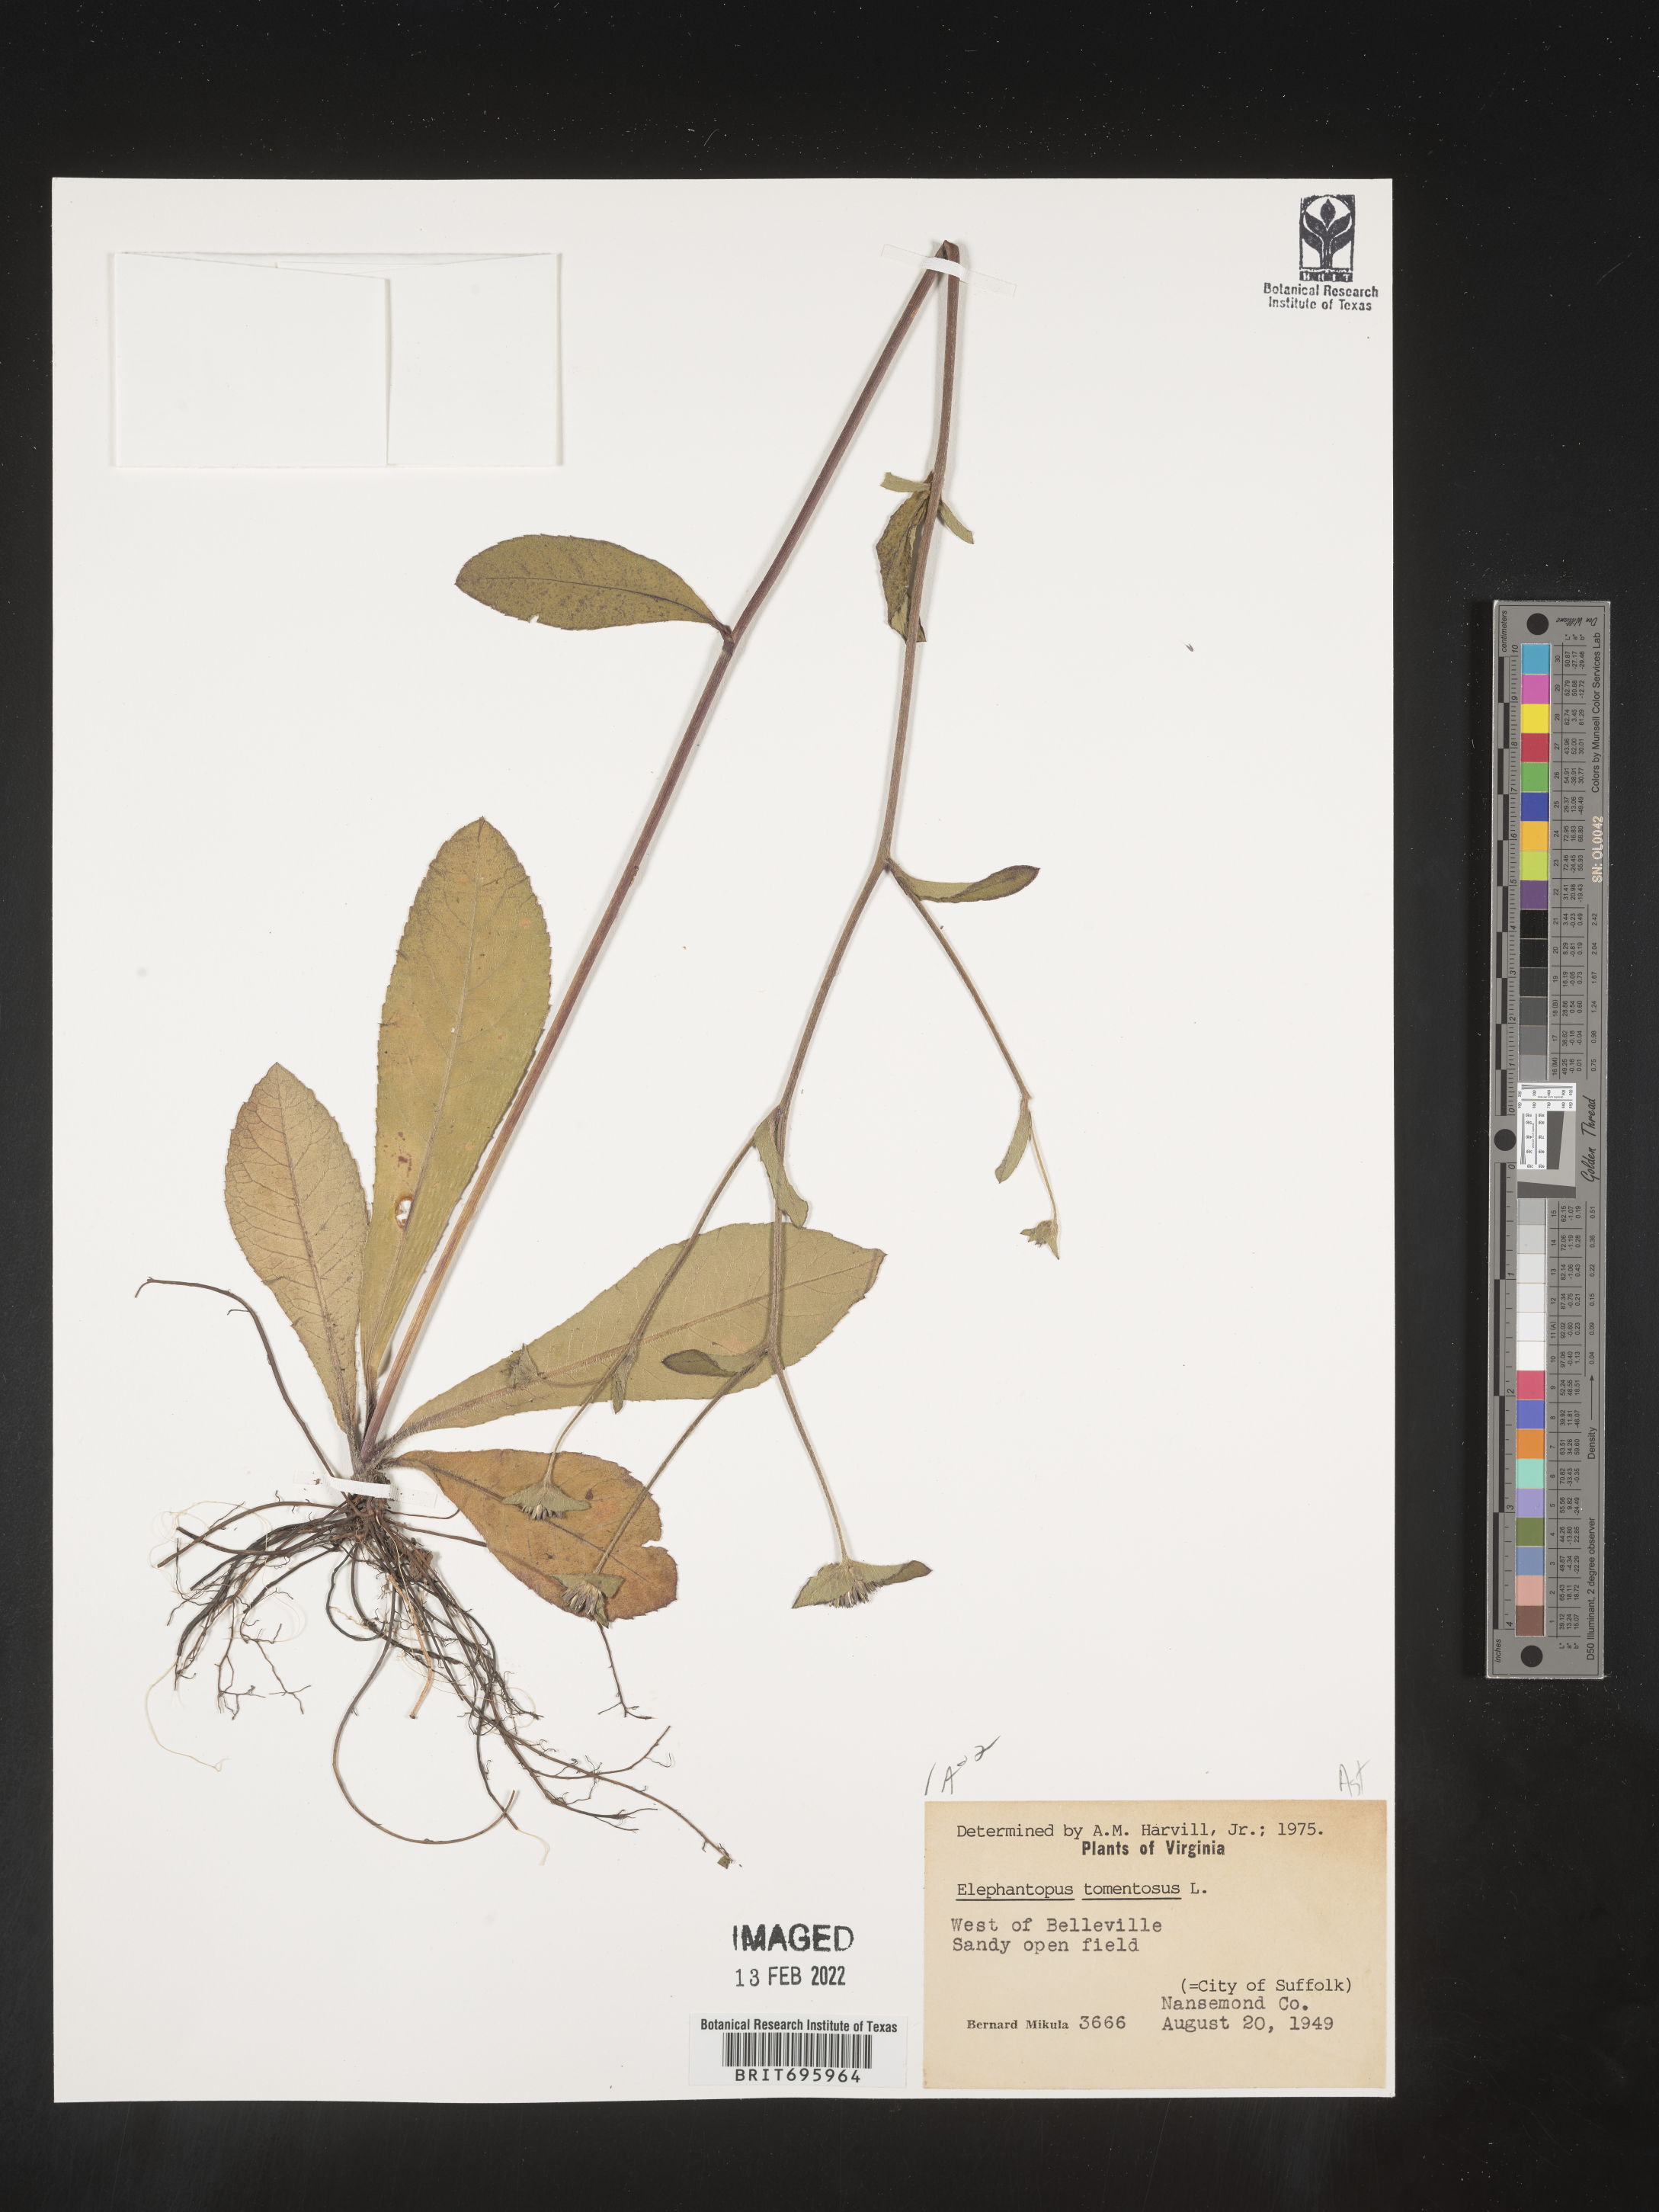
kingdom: Plantae
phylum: Tracheophyta
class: Magnoliopsida
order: Asterales
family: Asteraceae
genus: Elephantopus
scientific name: Elephantopus tomentosus
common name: Tobacco-weed
